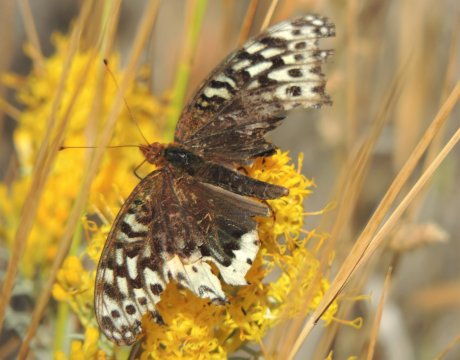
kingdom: Animalia
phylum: Arthropoda
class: Insecta
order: Lepidoptera
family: Nymphalidae
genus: Speyeria
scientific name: Speyeria cybele
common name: Great Spangled Fritillary
